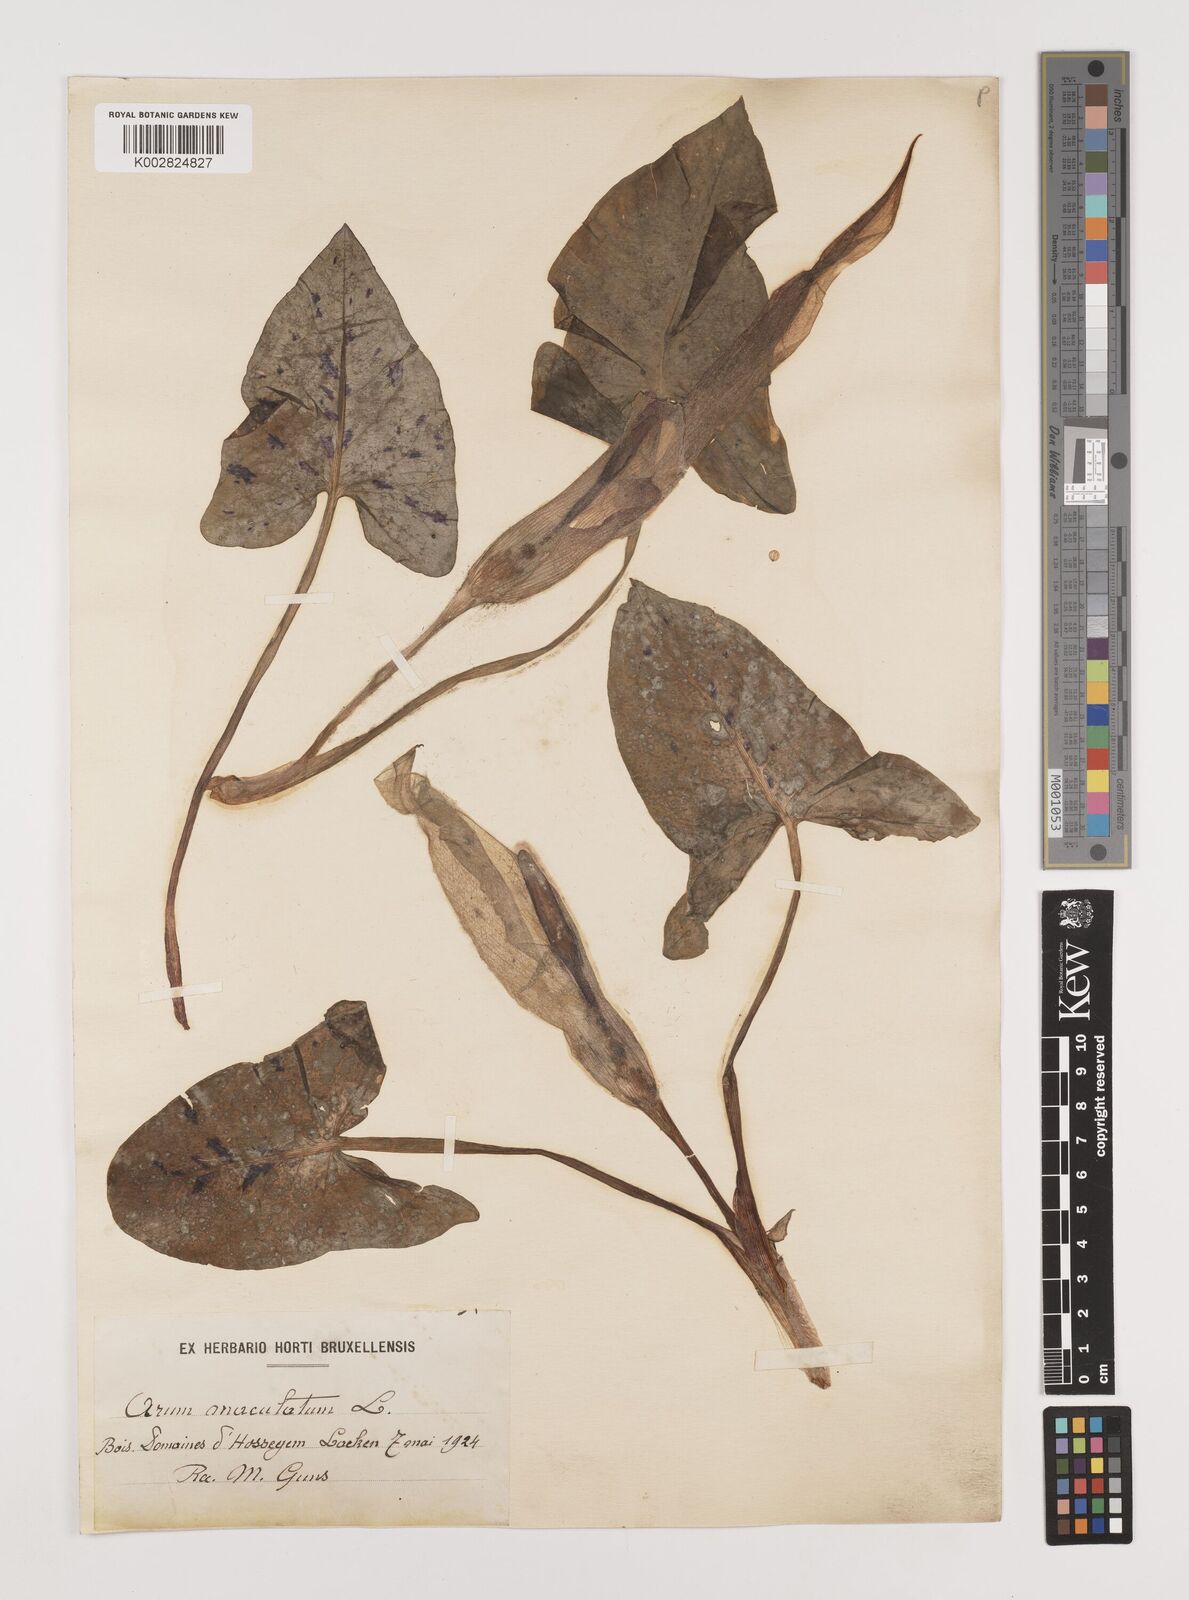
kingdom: Plantae
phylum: Tracheophyta
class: Liliopsida
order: Alismatales
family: Araceae
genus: Arum
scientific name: Arum maculatum
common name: Lords-and-ladies
